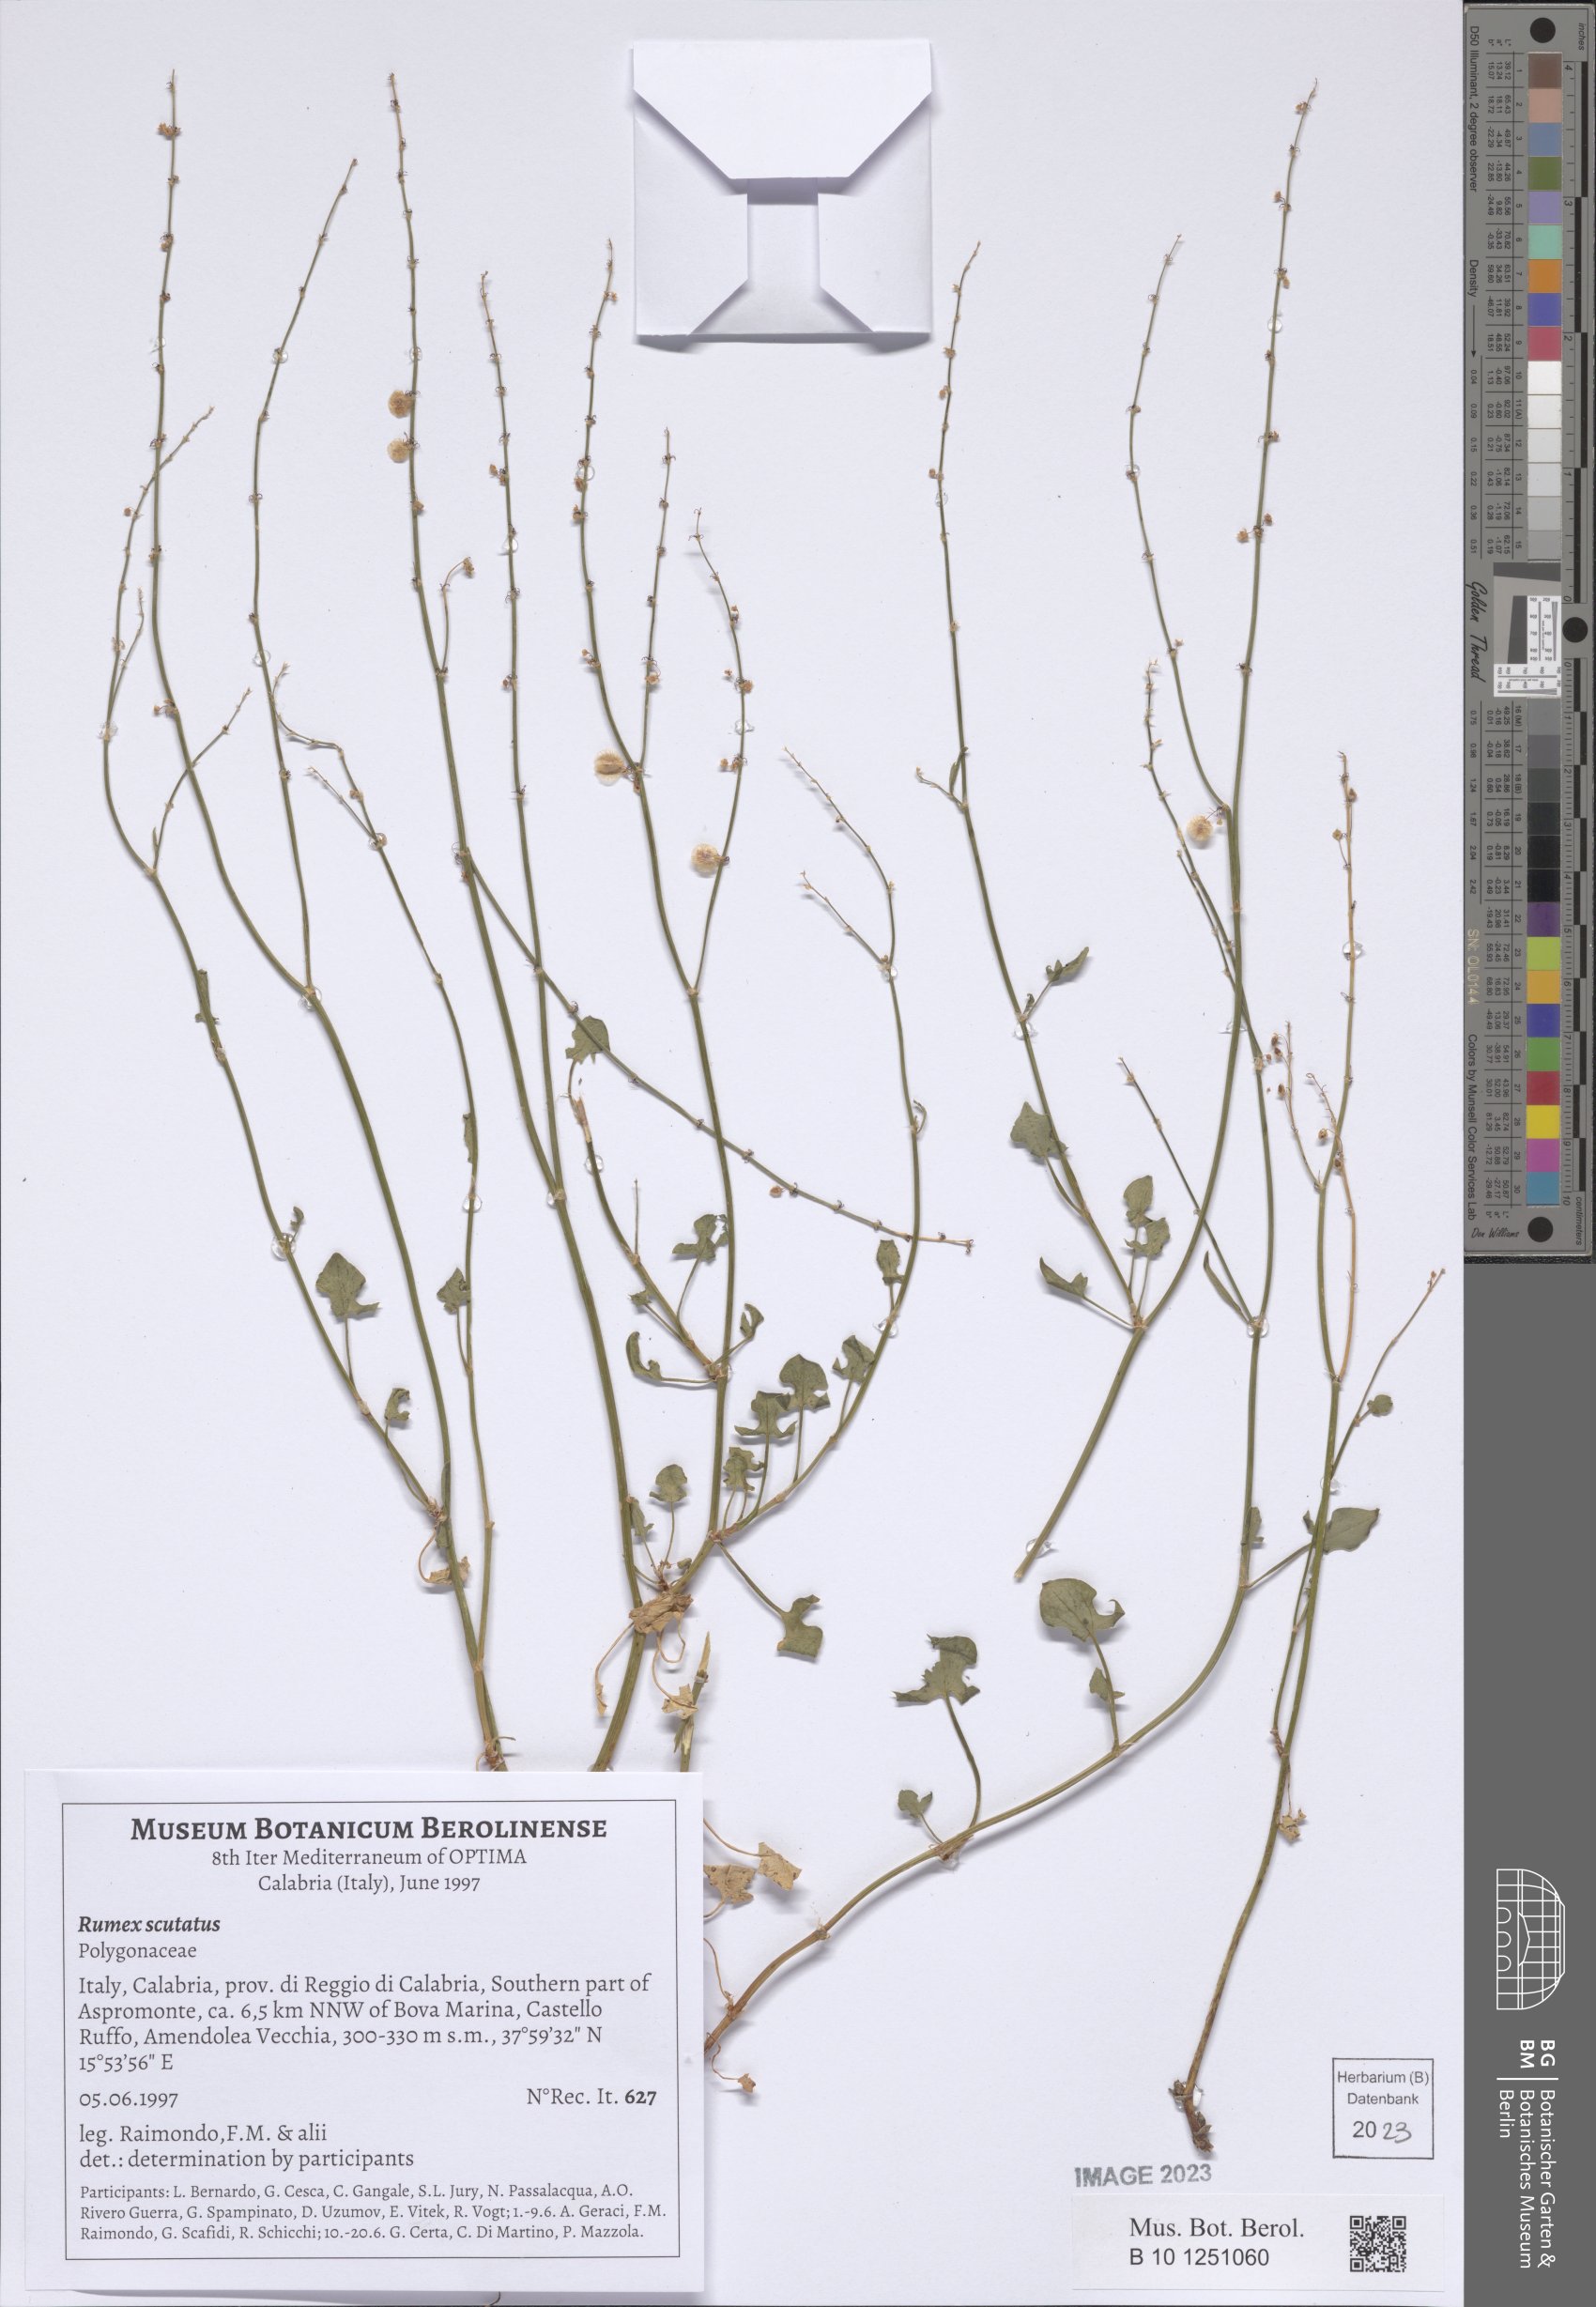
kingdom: Plantae
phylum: Tracheophyta
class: Magnoliopsida
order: Caryophyllales
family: Polygonaceae
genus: Rumex
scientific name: Rumex scutatus
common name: French sorrel
